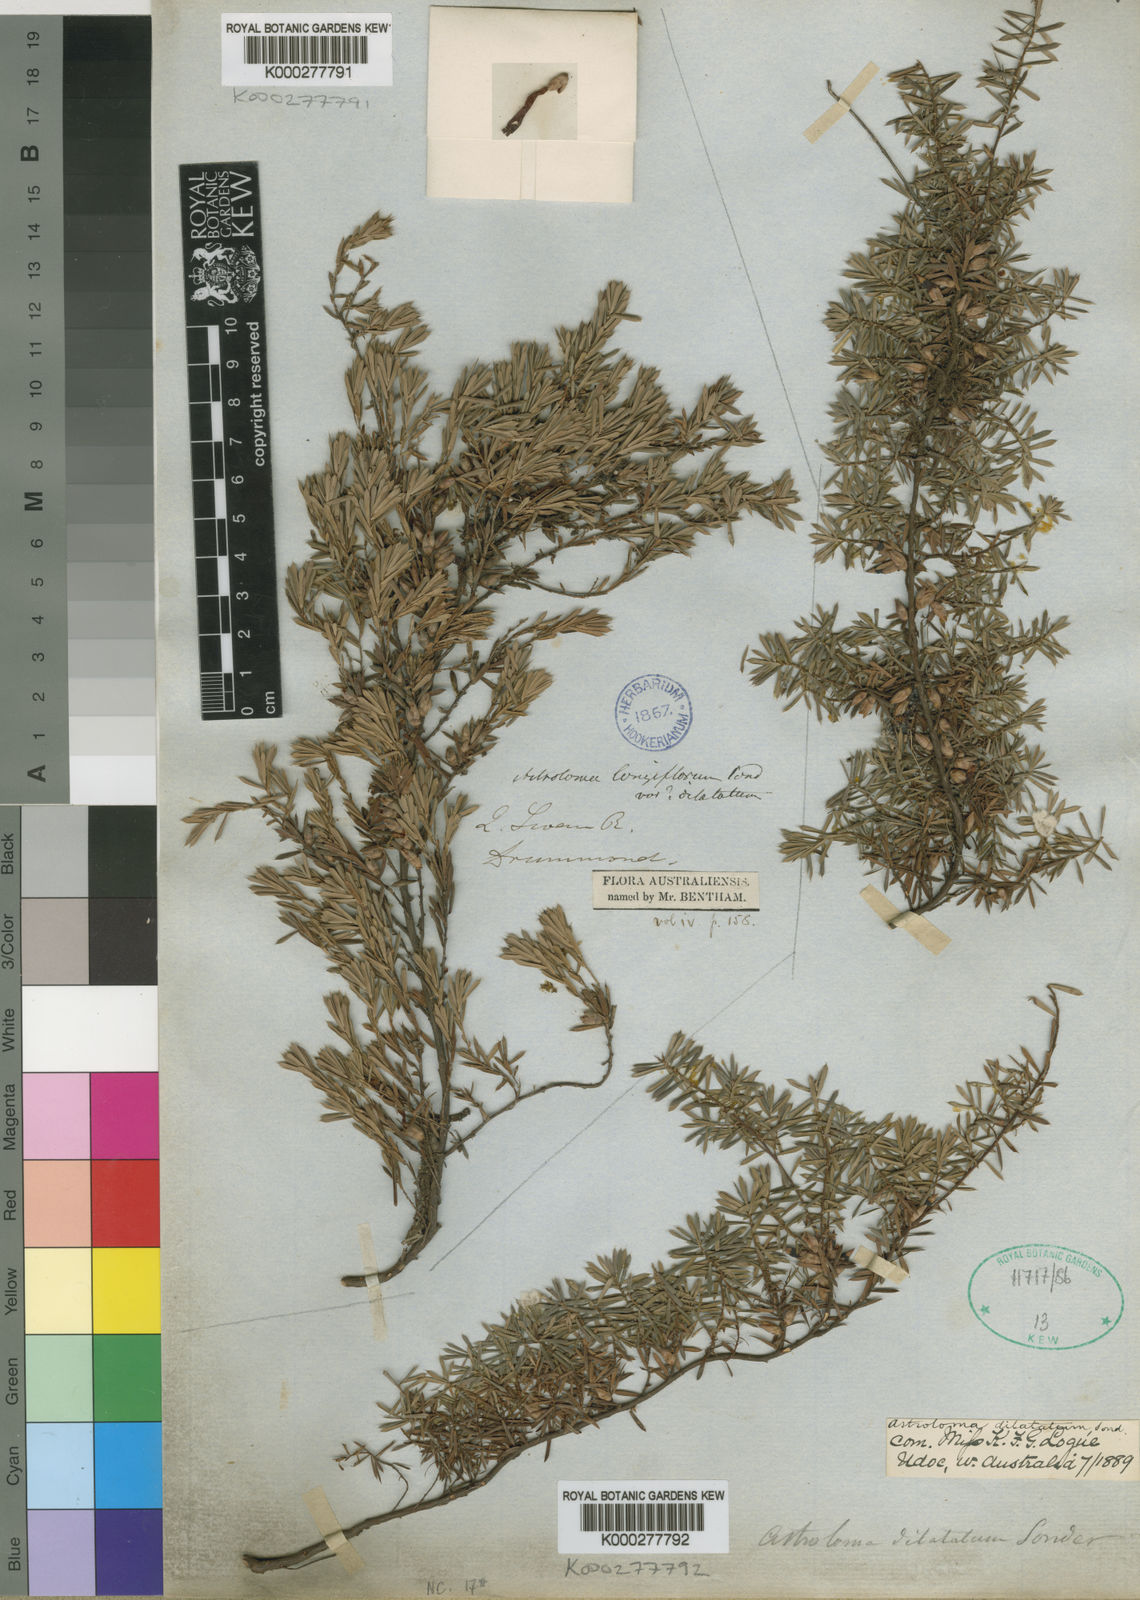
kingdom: Plantae
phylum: Tracheophyta
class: Magnoliopsida
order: Ericales
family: Ericaceae
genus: Styphelia
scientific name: Styphelia discolor
